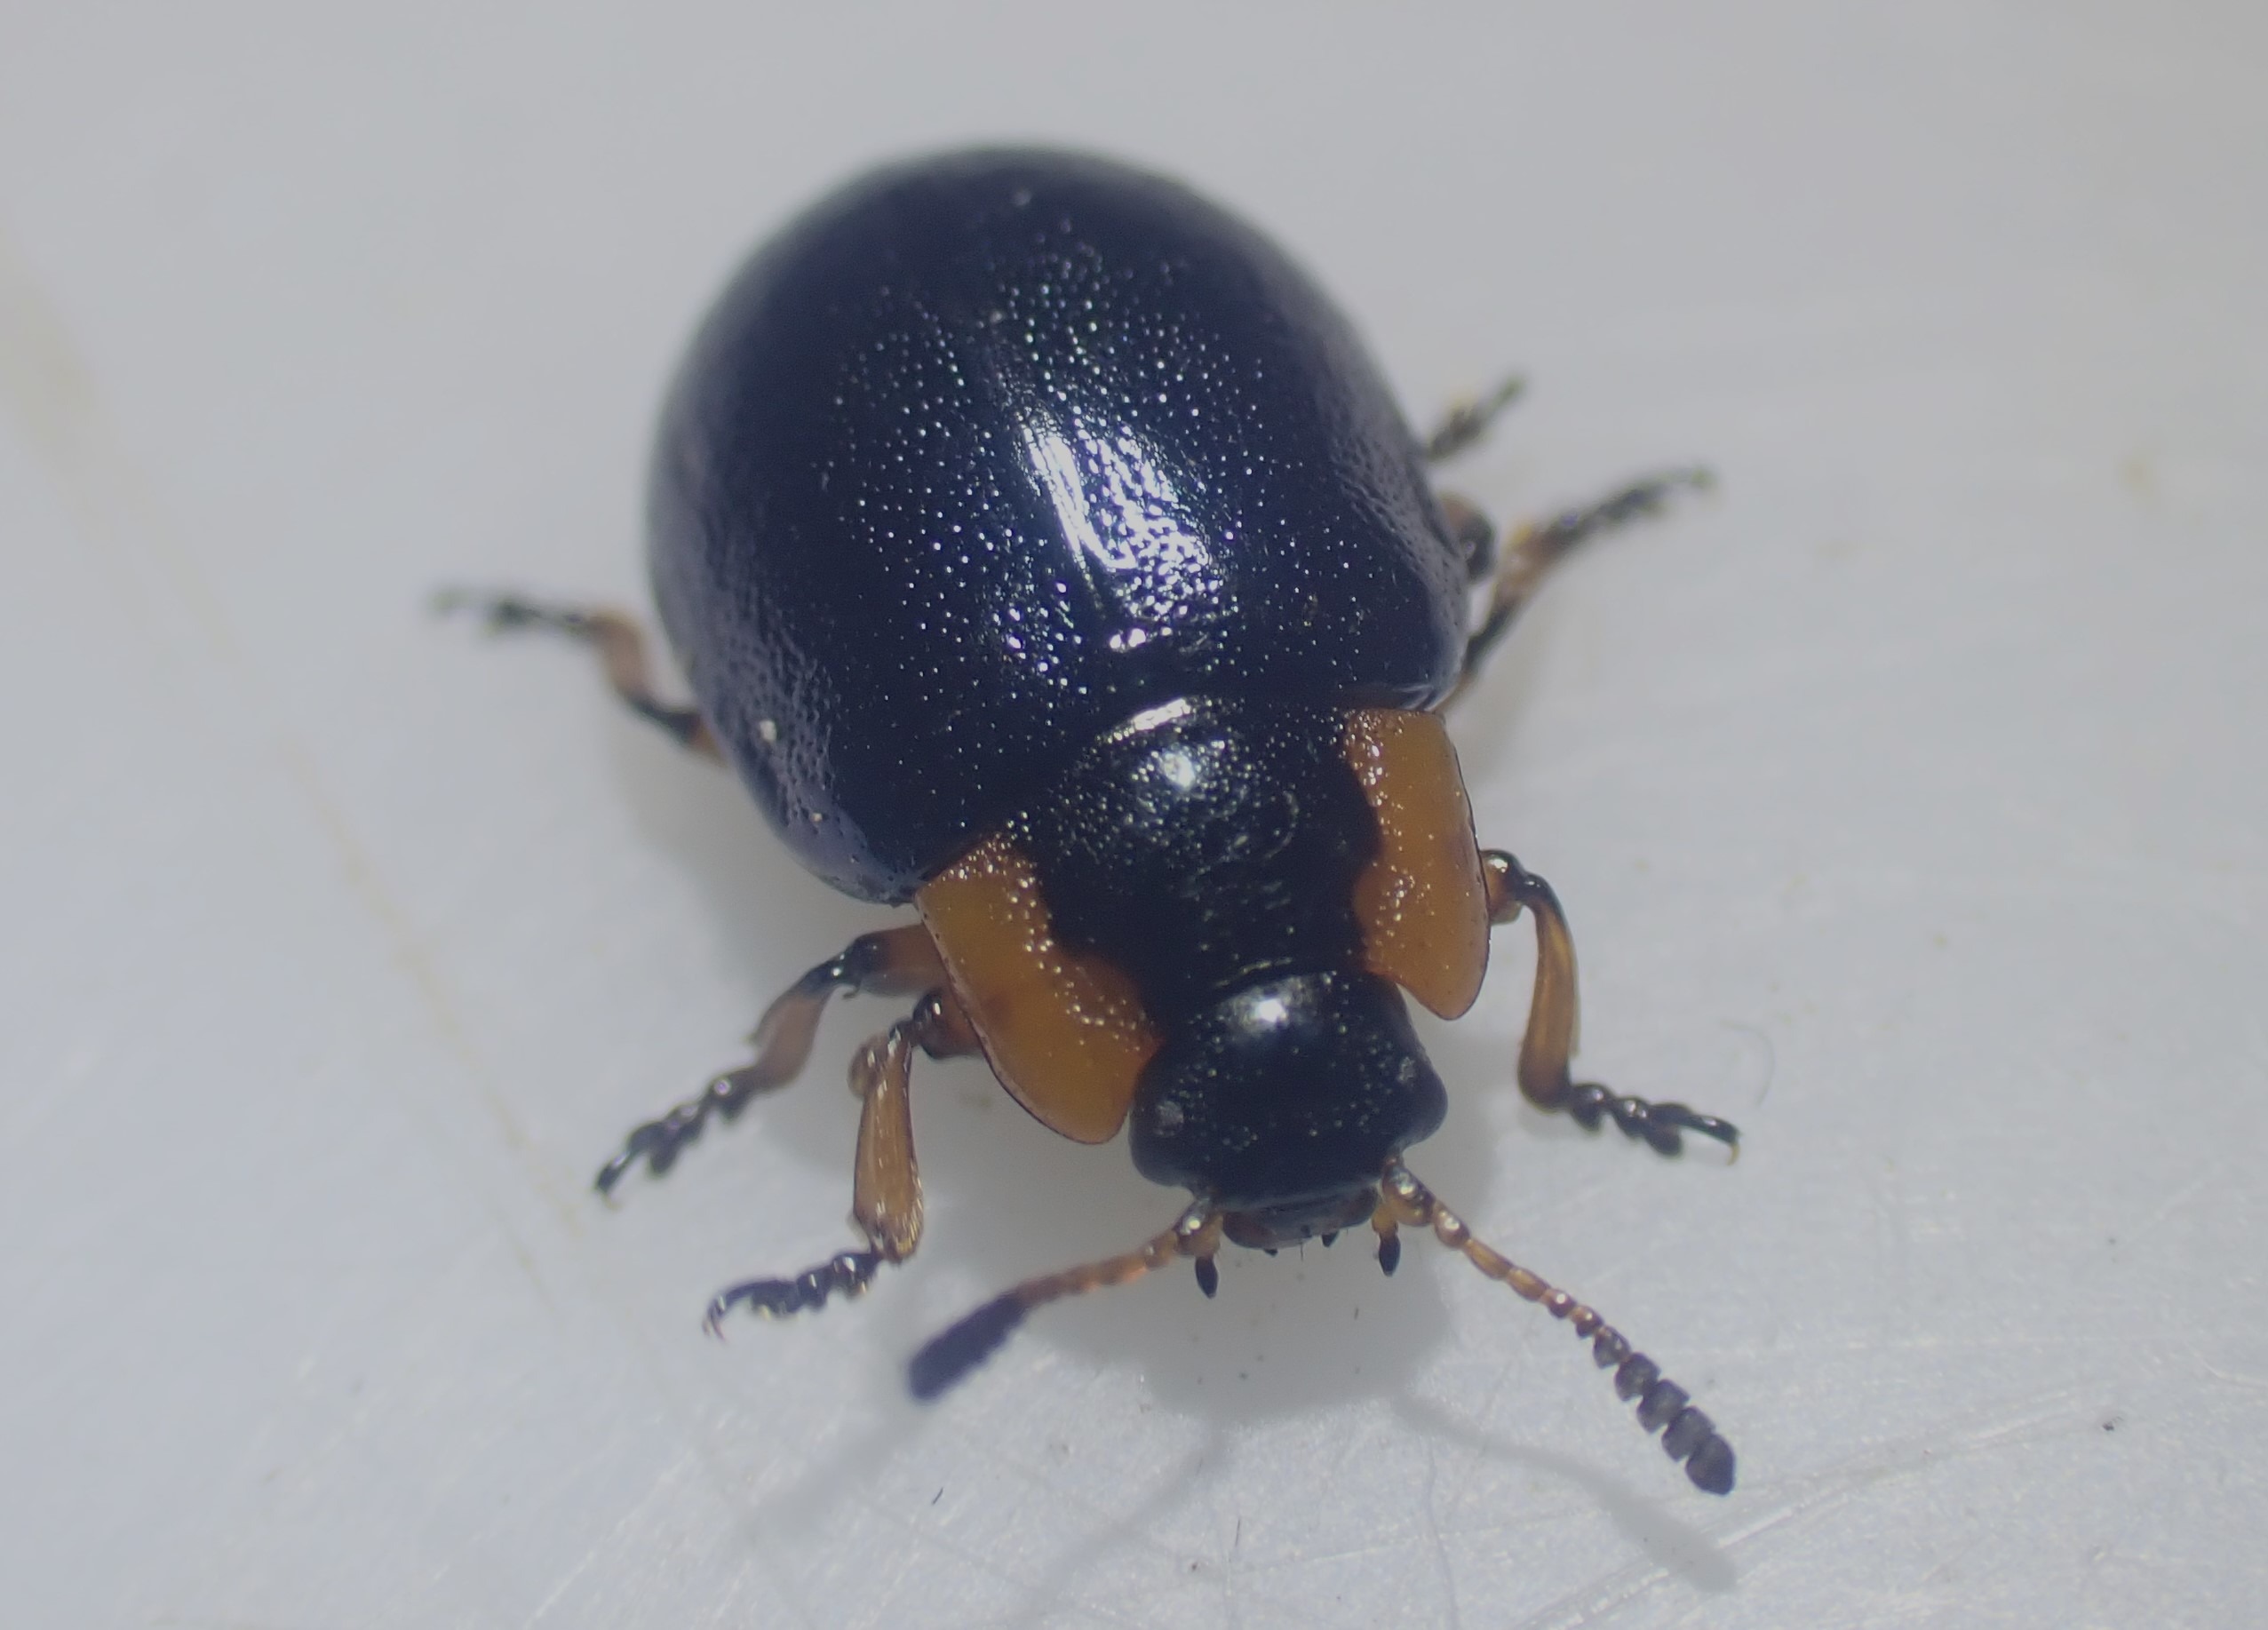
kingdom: Animalia
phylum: Arthropoda
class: Insecta
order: Coleoptera
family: Chrysomelidae
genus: Chrysomela
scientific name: Chrysomela collaris
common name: Klitbladbille
